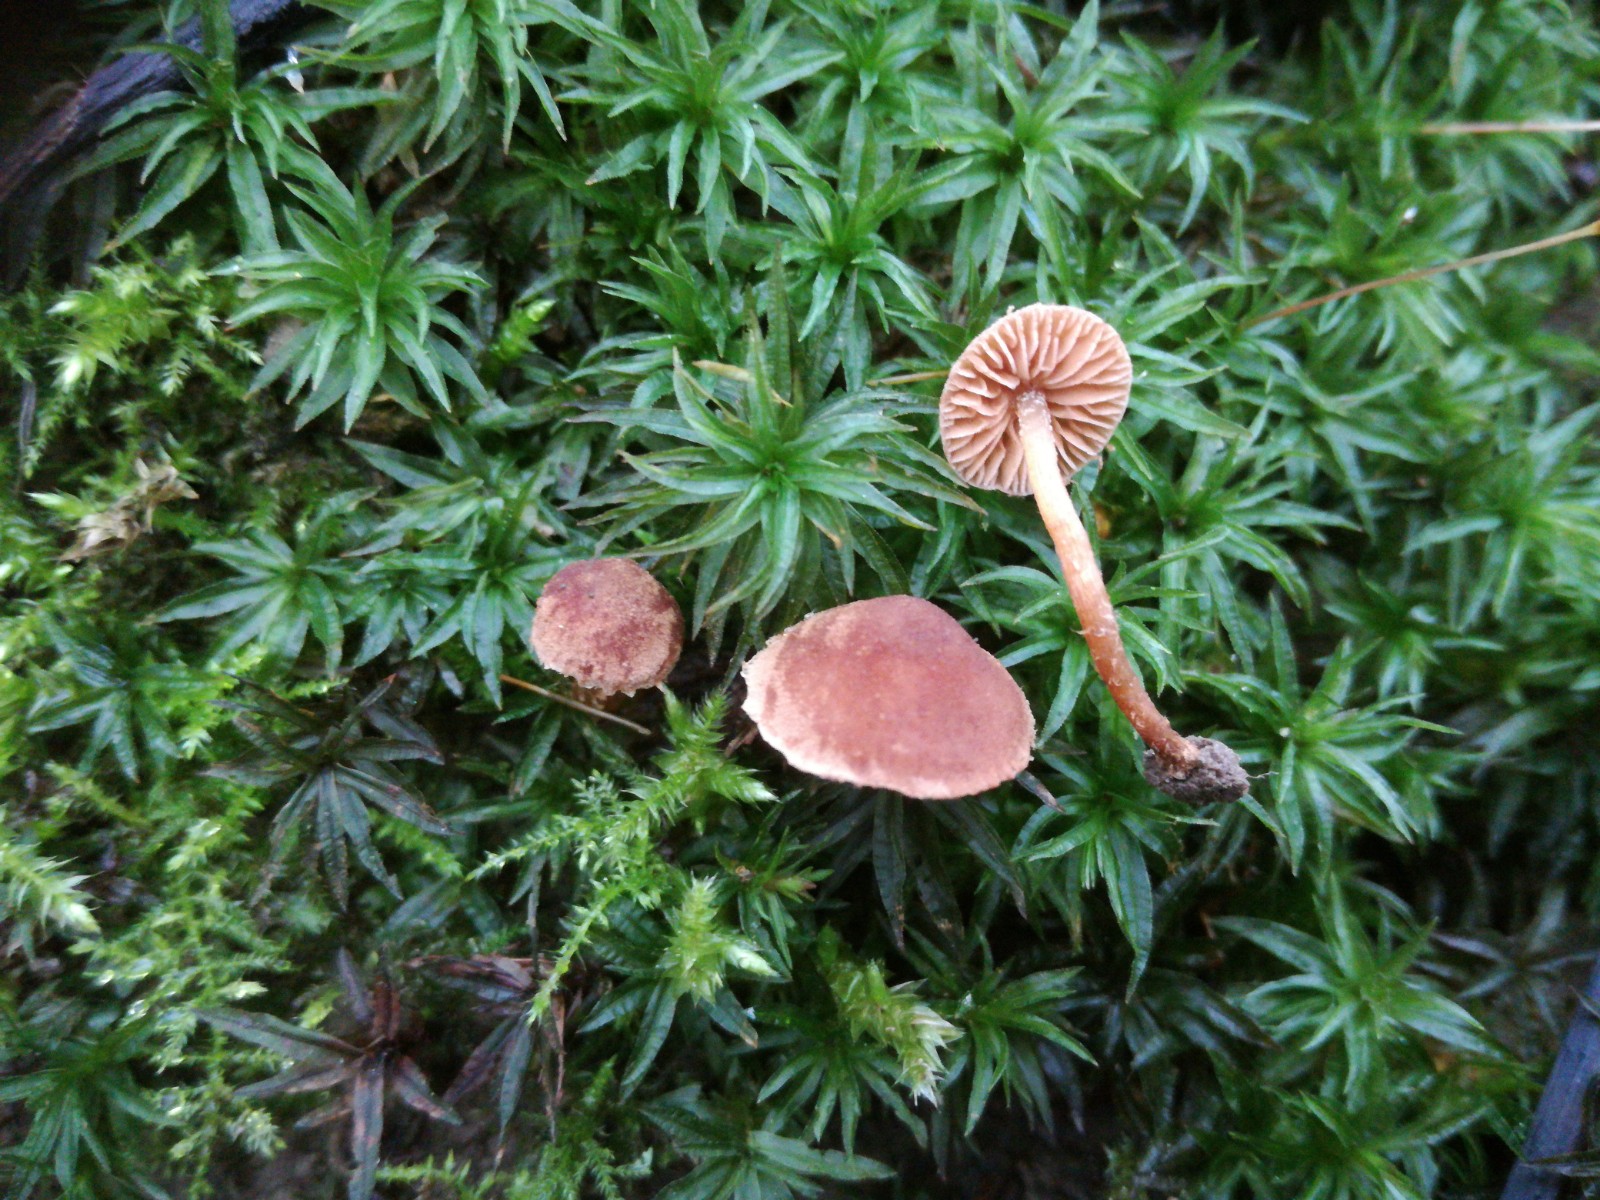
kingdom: Fungi
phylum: Basidiomycota
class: Agaricomycetes
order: Agaricales
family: Tubariaceae
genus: Flammulaster
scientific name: Flammulaster
